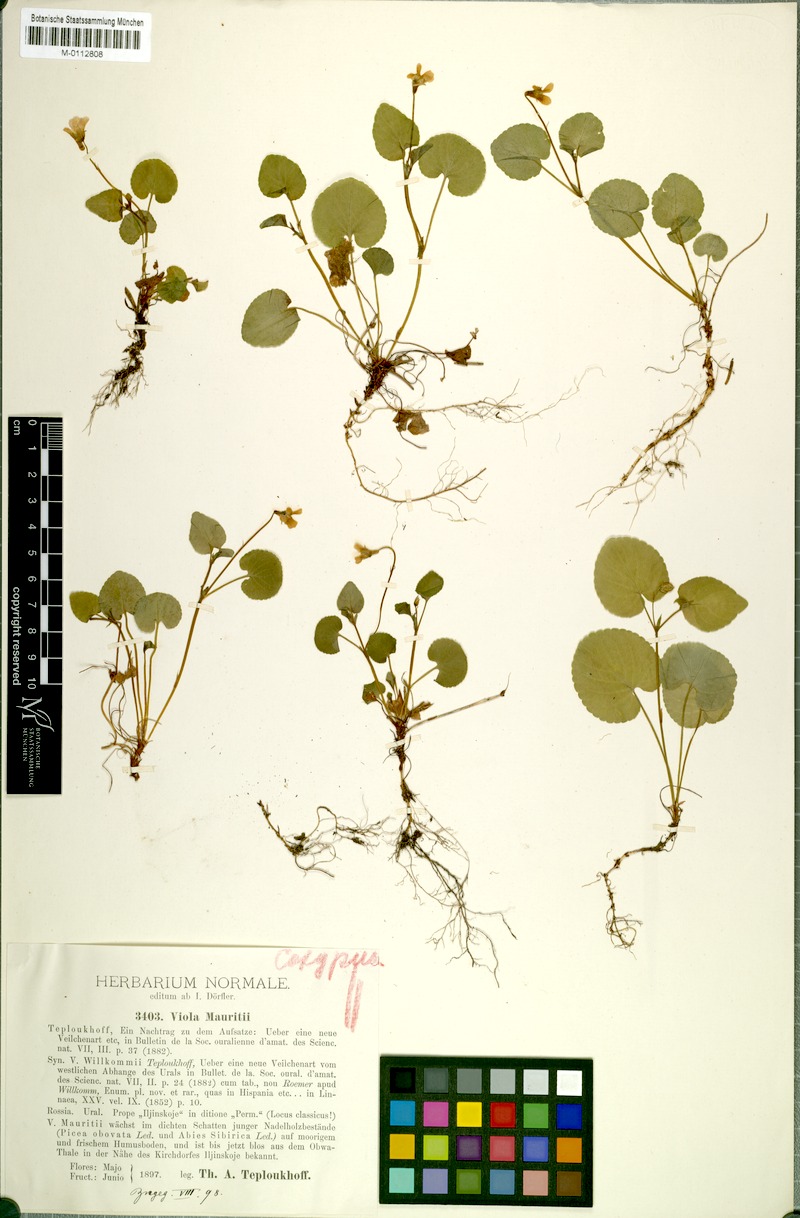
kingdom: Plantae
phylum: Tracheophyta
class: Magnoliopsida
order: Malpighiales
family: Violaceae
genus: Viola
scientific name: Viola mauritii
